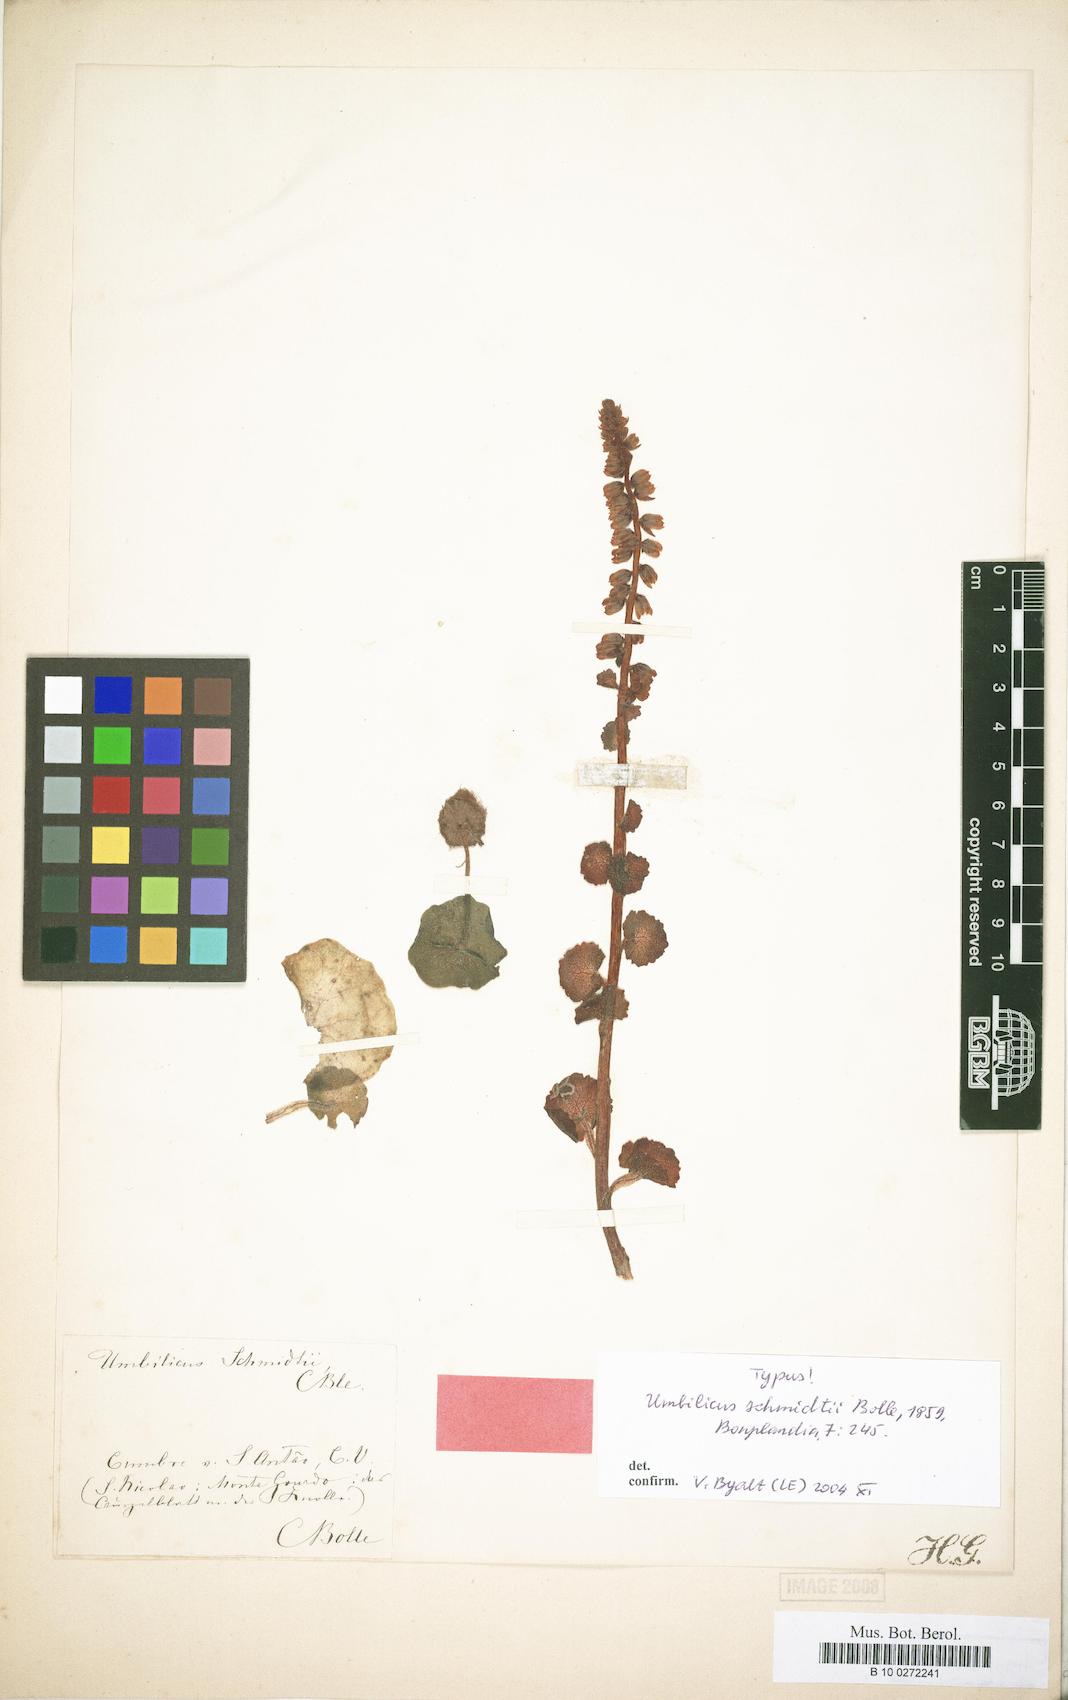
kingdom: Plantae
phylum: Tracheophyta
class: Magnoliopsida
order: Saxifragales
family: Crassulaceae
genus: Umbilicus
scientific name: Umbilicus schmidtii
